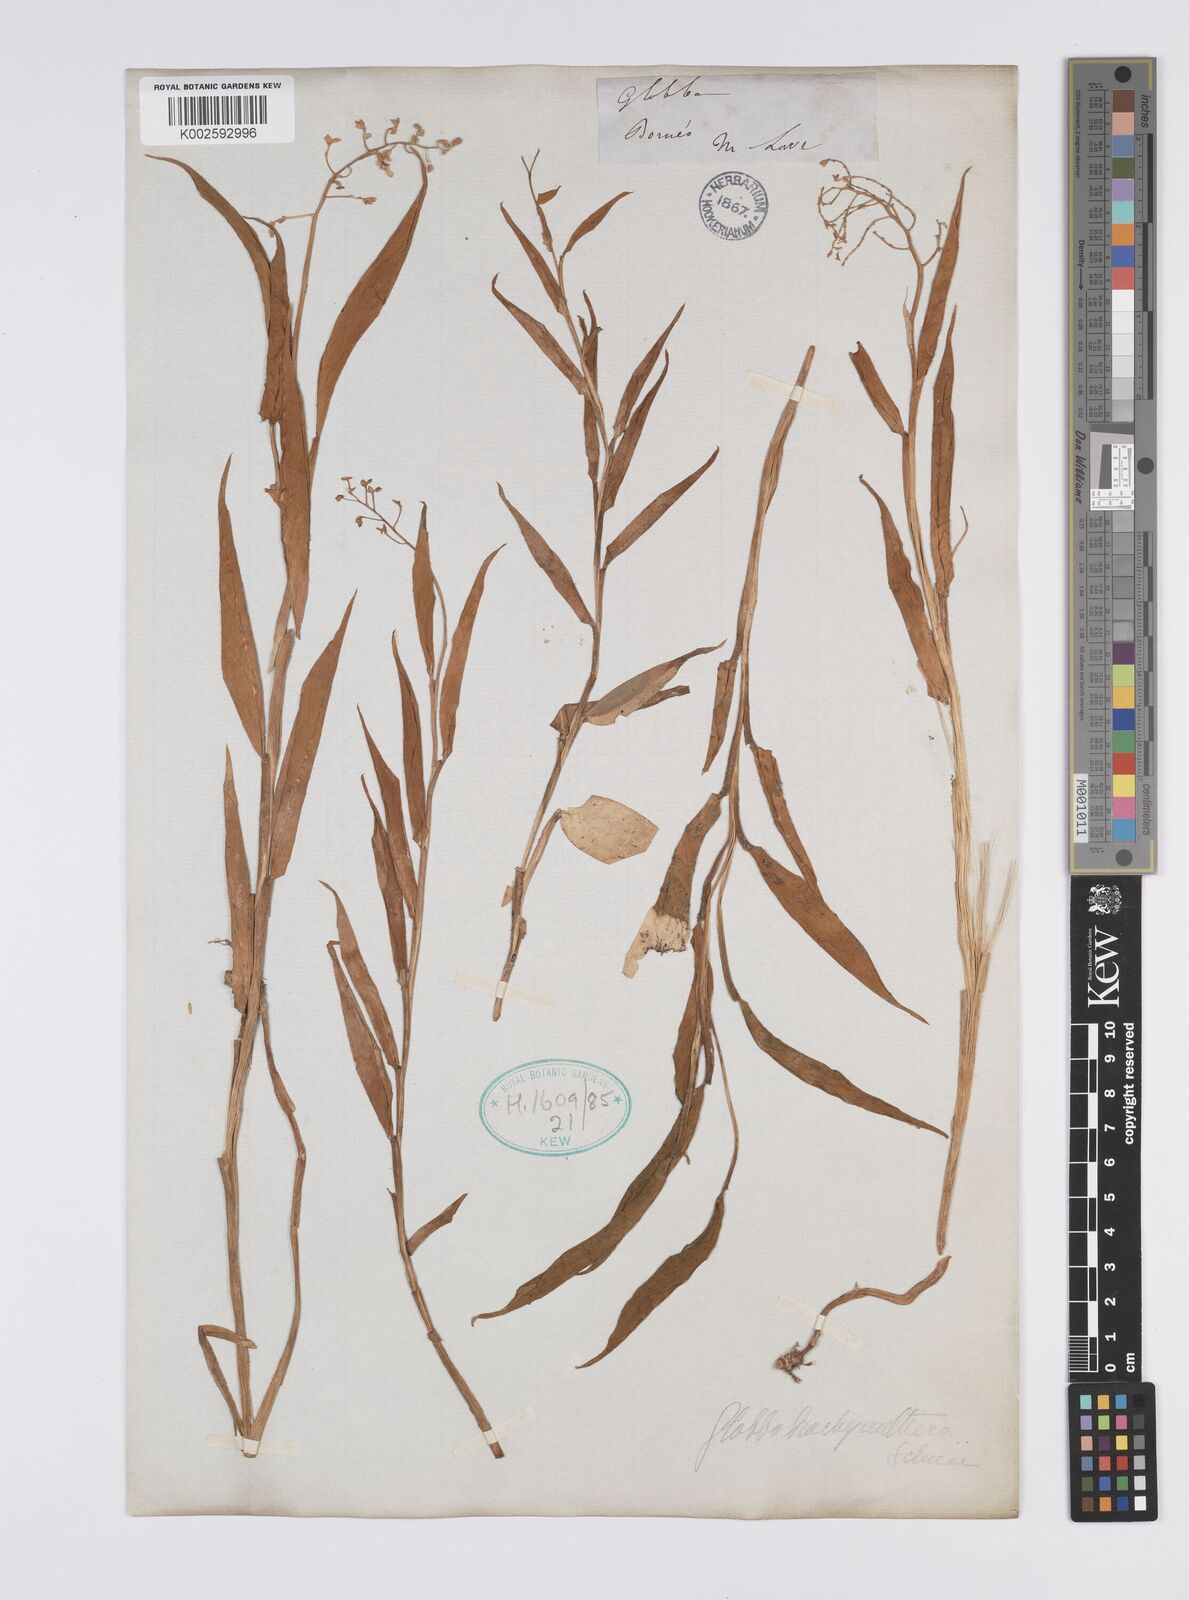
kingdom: Plantae
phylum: Tracheophyta
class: Liliopsida
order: Zingiberales
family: Zingiberaceae
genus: Globba
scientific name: Globba brachyanthera
